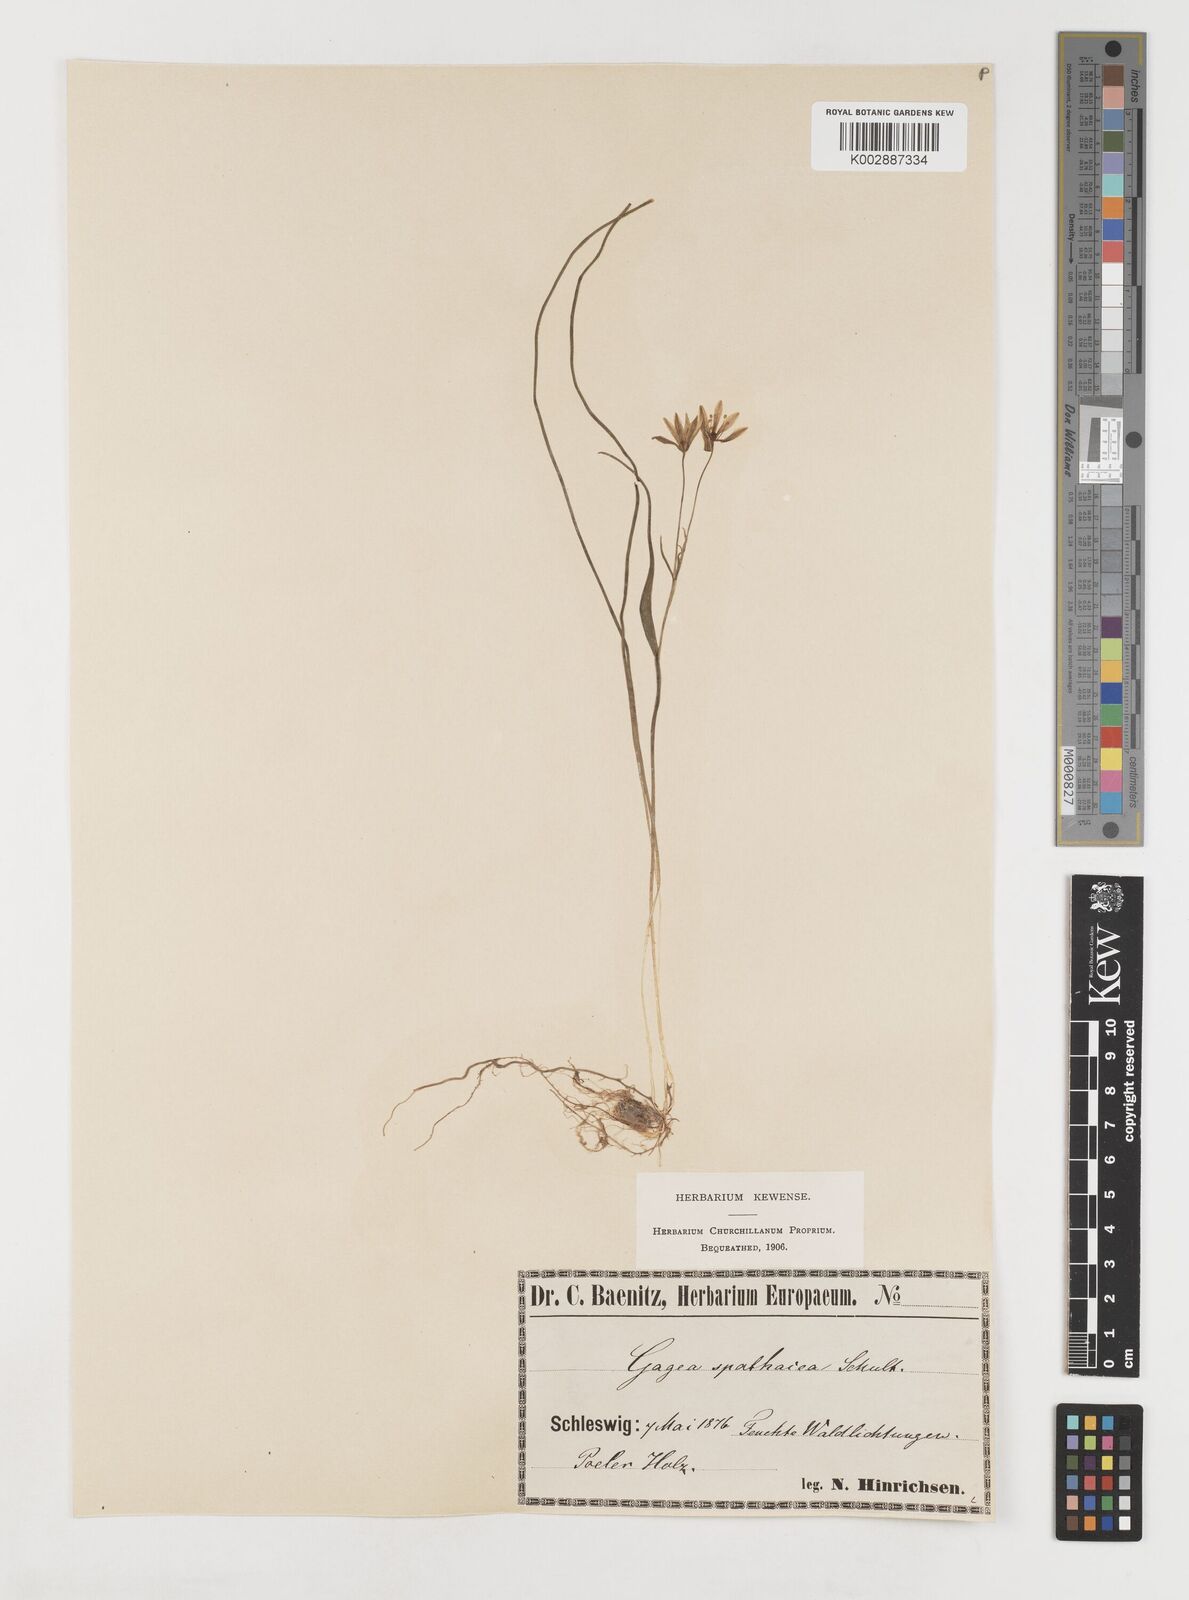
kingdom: Plantae
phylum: Tracheophyta
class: Liliopsida
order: Liliales
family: Liliaceae
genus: Gagea
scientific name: Gagea spathacea
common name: Belgian gagea
